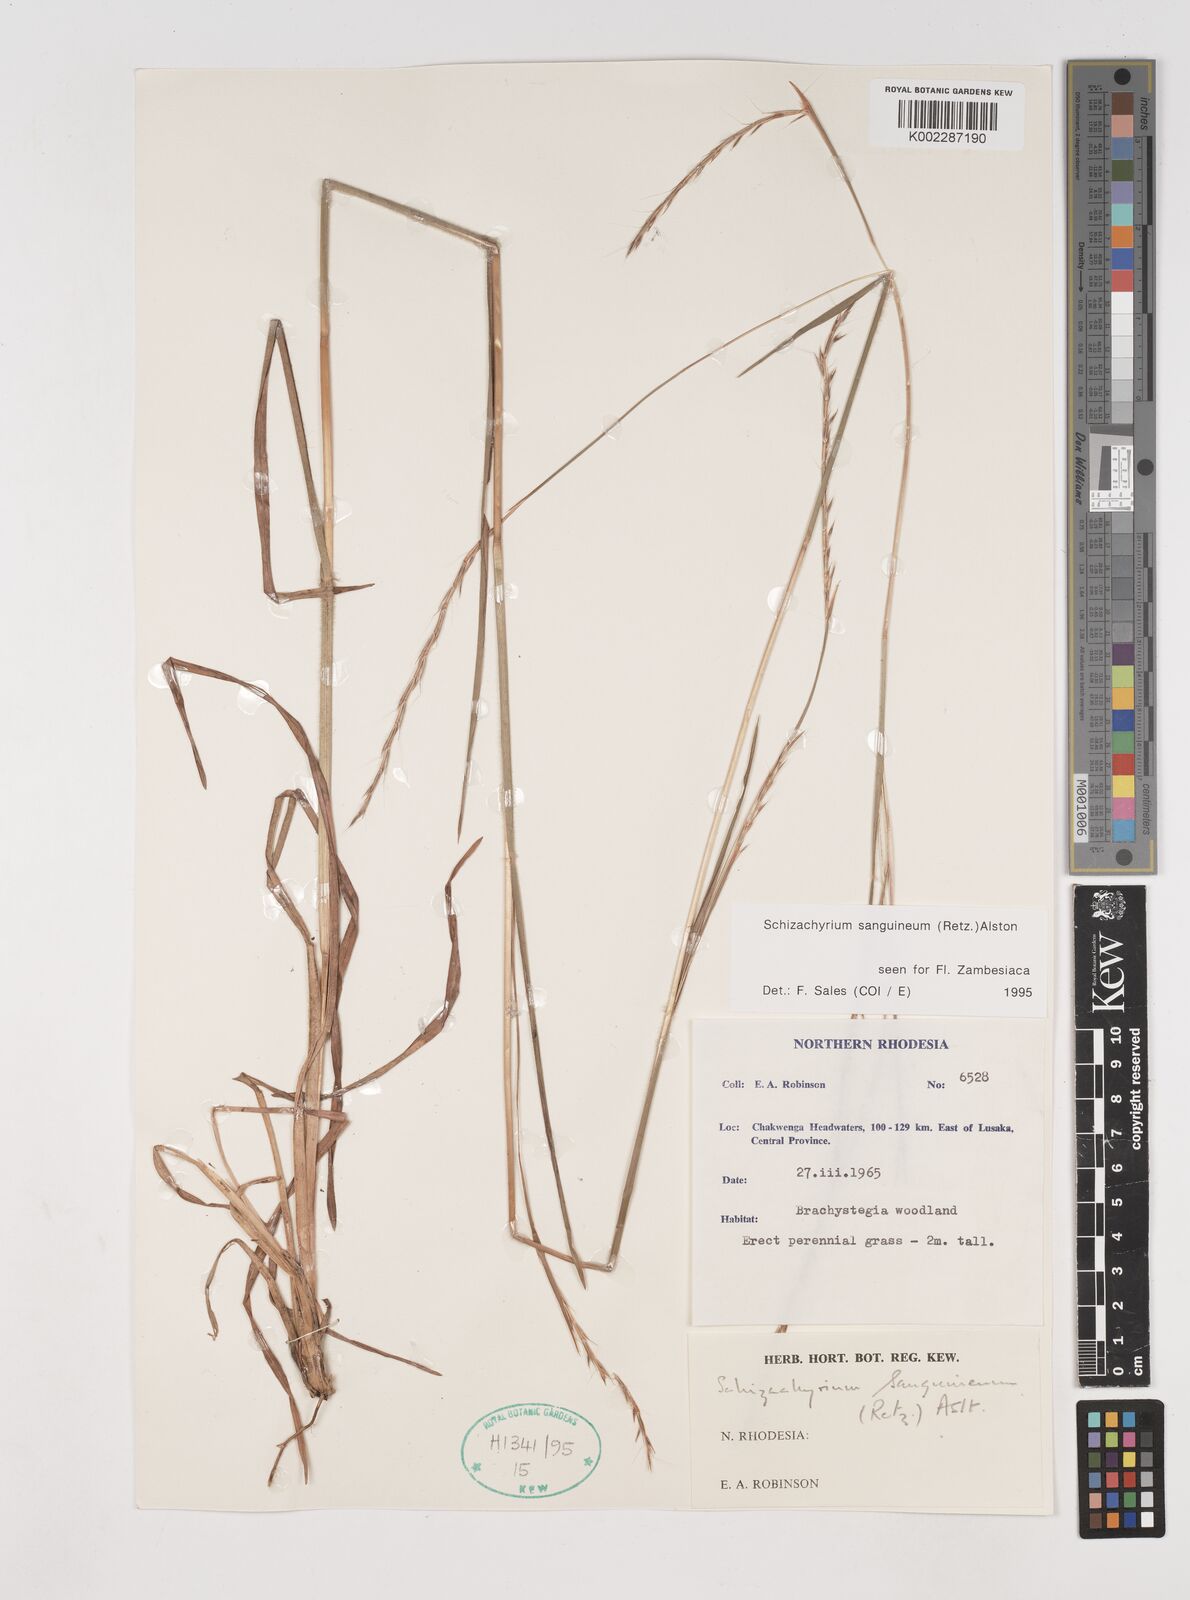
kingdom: Plantae
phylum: Tracheophyta
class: Liliopsida
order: Poales
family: Poaceae
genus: Schizachyrium
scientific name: Schizachyrium sanguineum
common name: Crimson bluestem
